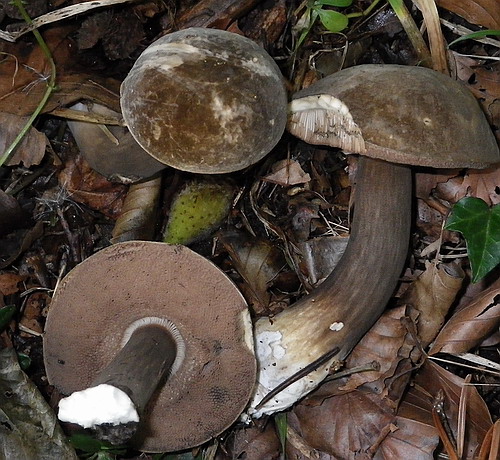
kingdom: Fungi
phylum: Basidiomycota
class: Agaricomycetes
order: Boletales
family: Boletaceae
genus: Porphyrellus
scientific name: Porphyrellus porphyrosporus
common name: sodrørhat
